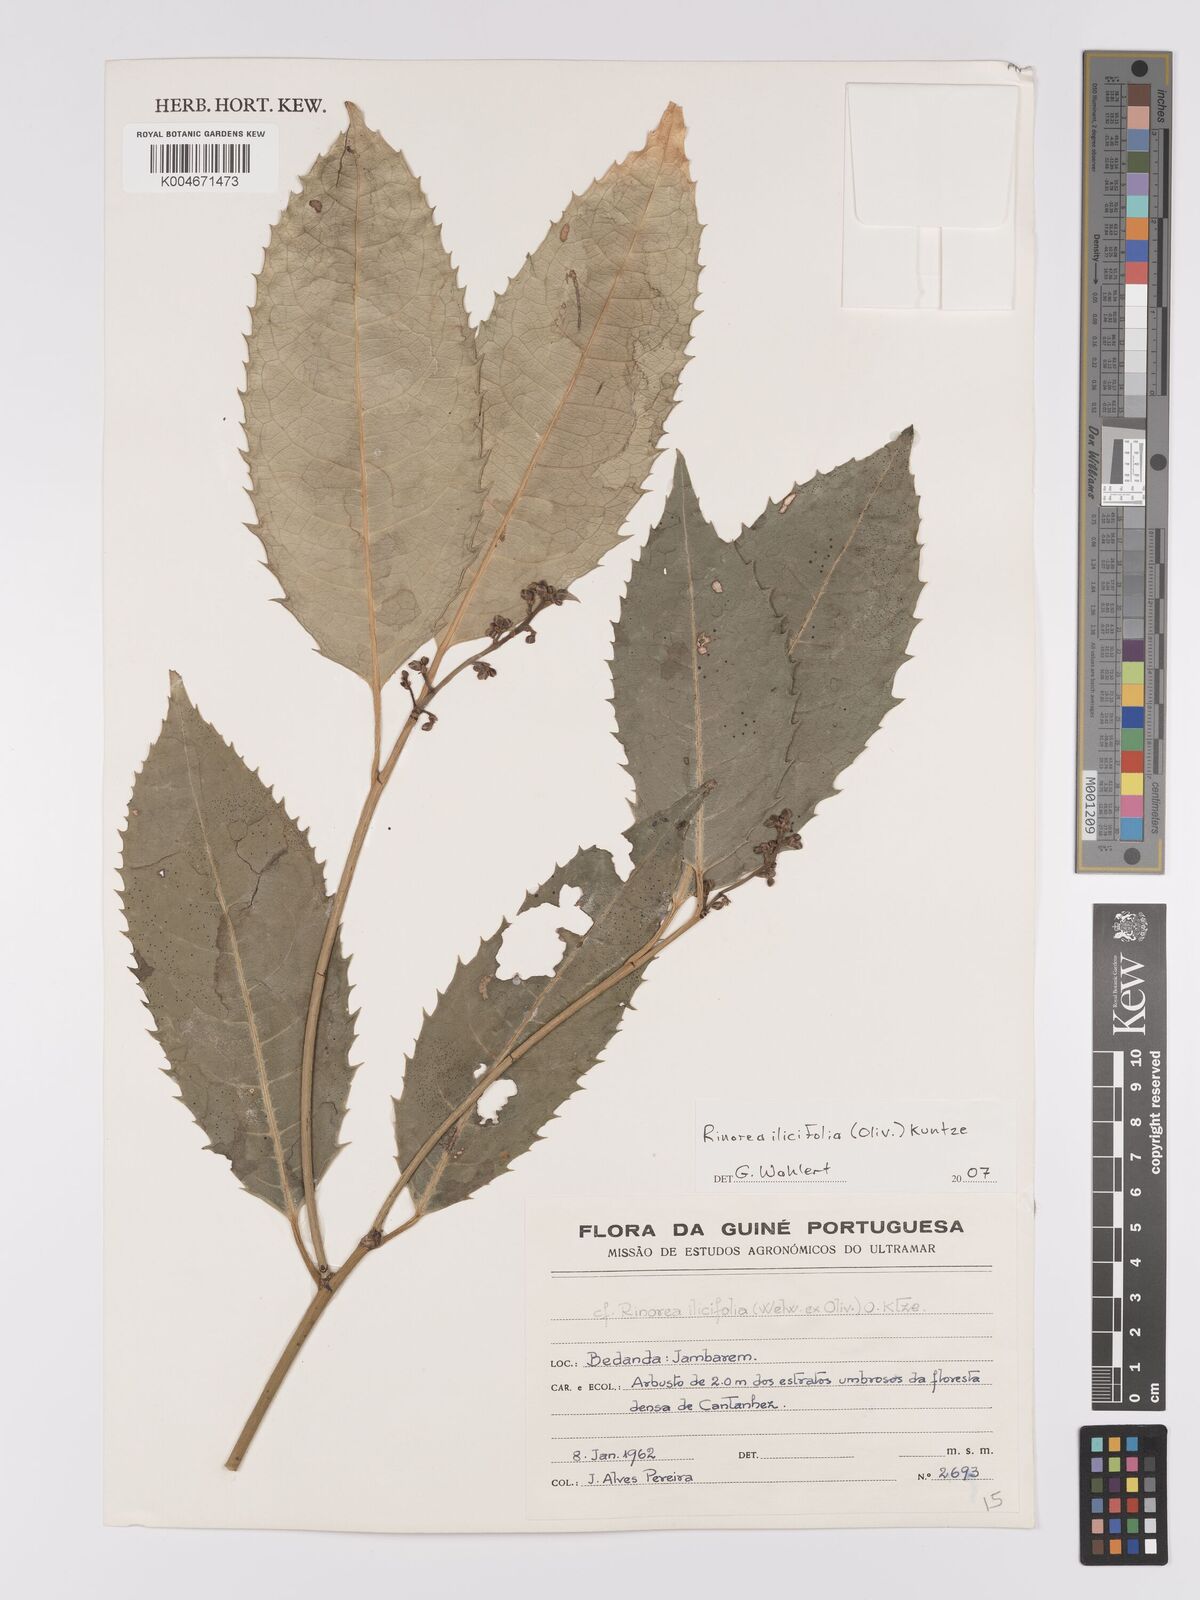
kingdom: Plantae
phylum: Tracheophyta
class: Magnoliopsida
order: Malpighiales
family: Violaceae
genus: Rinorea
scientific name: Rinorea ilicifolia
